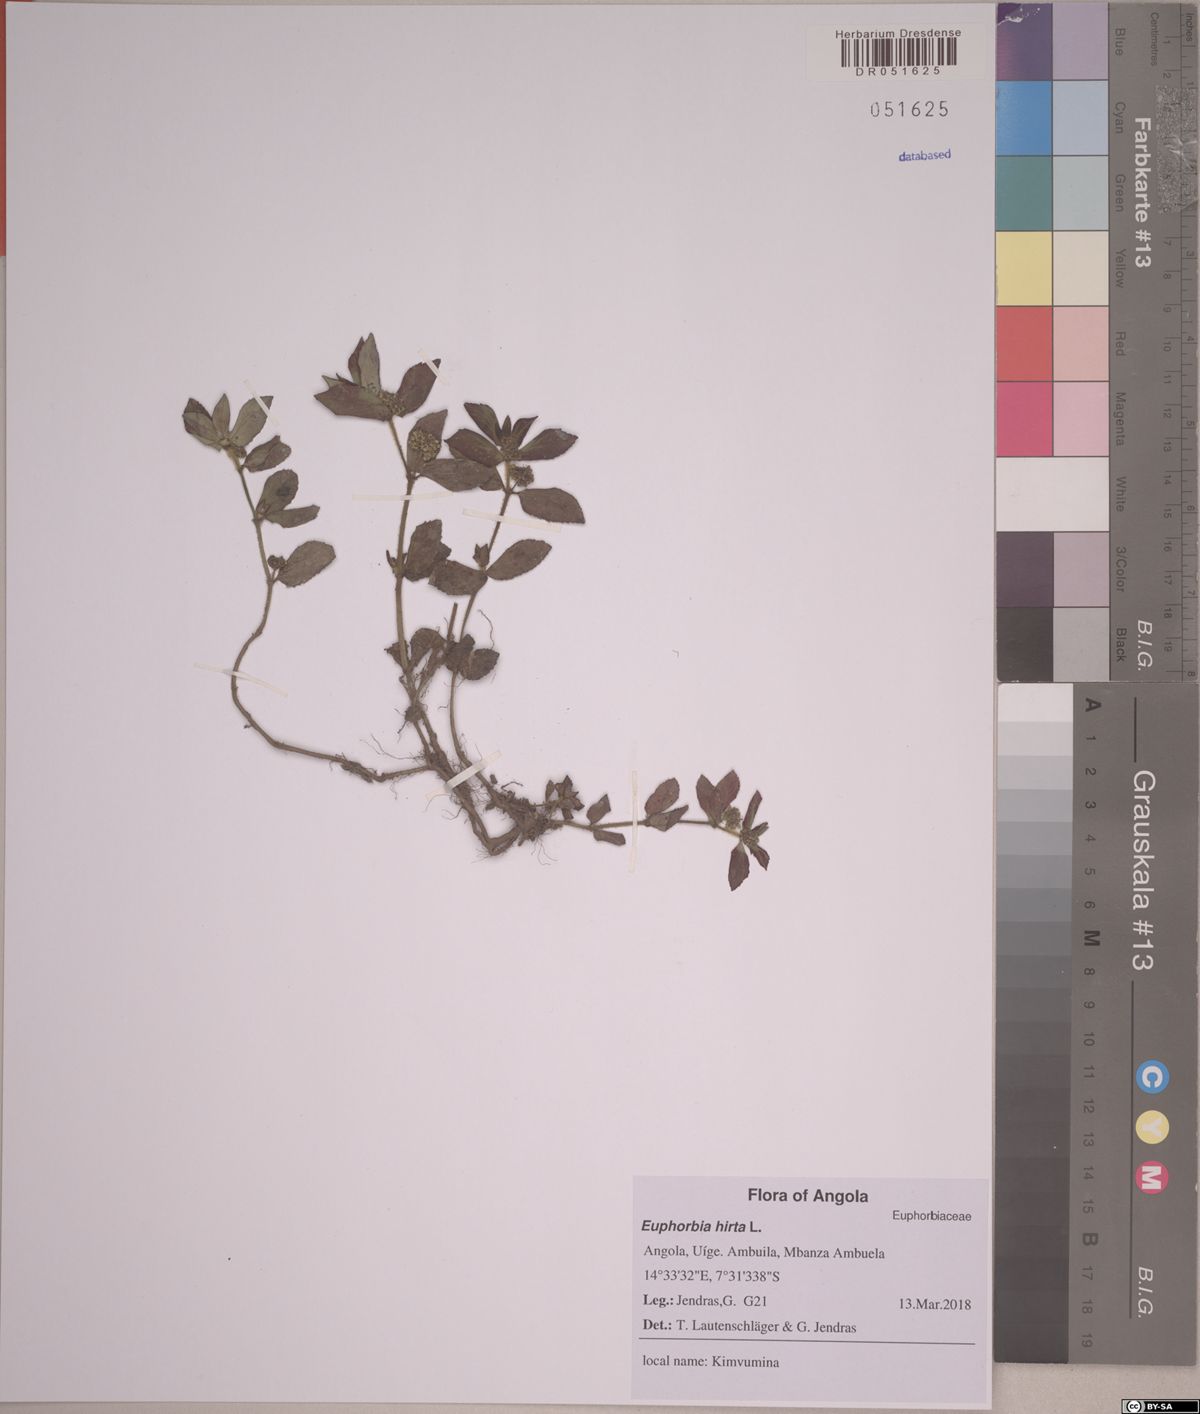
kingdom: Plantae
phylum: Tracheophyta
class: Magnoliopsida
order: Malpighiales
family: Euphorbiaceae
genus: Euphorbia
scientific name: Euphorbia hirta
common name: Pillpod sandmat
